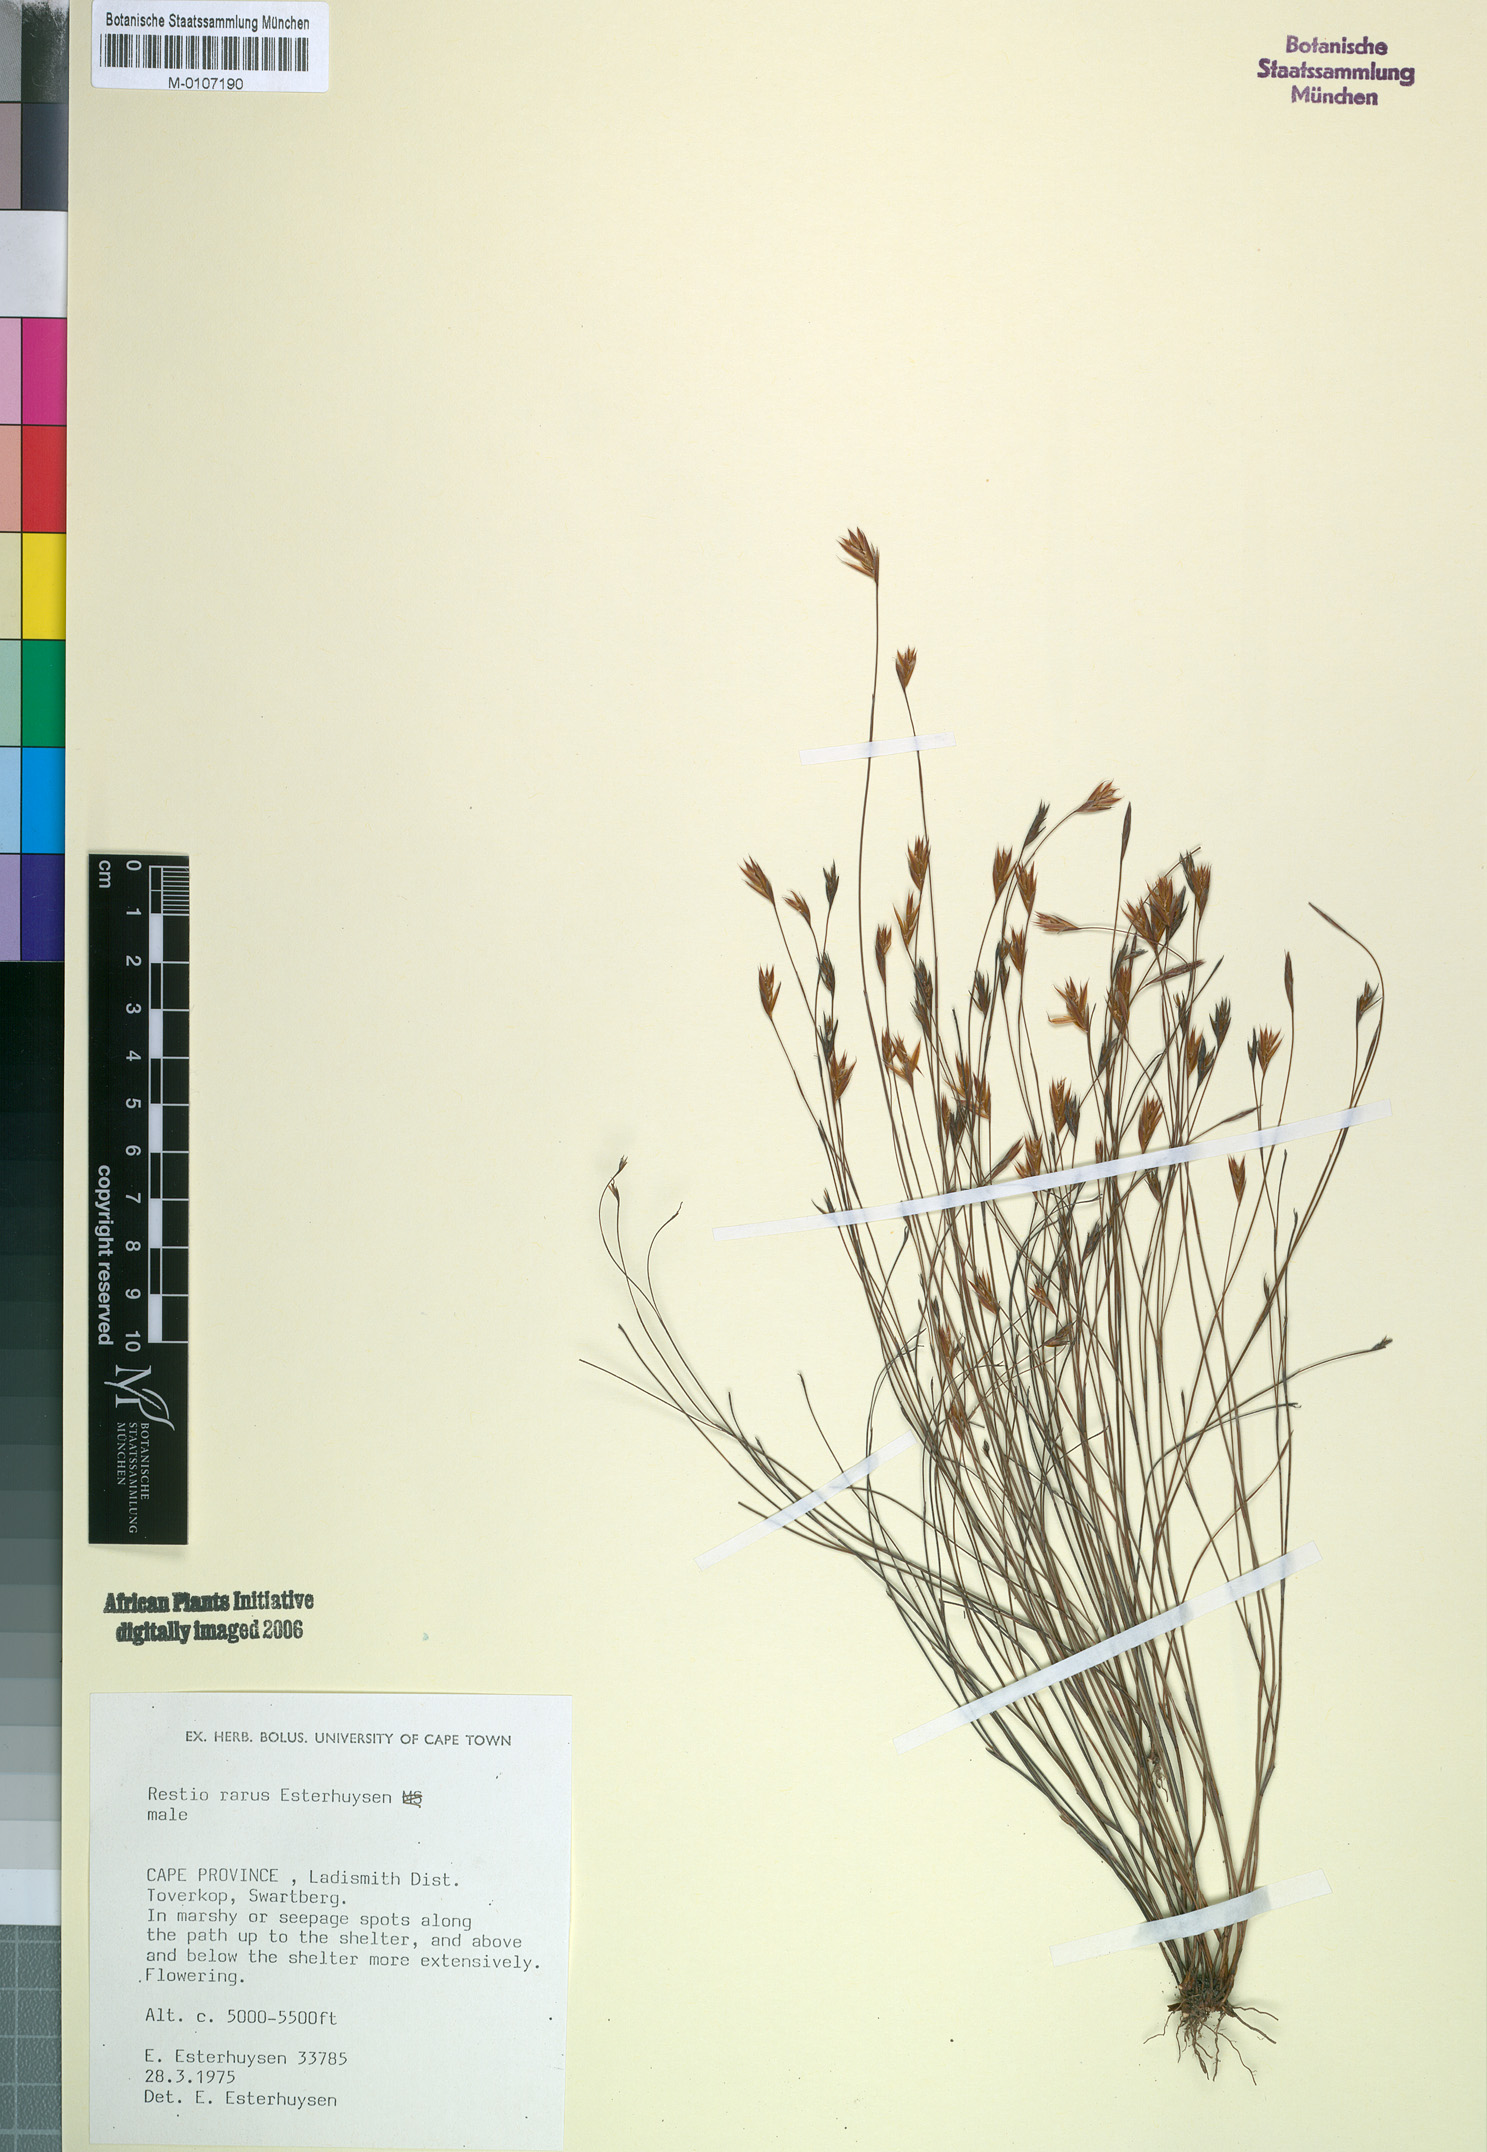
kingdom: Plantae
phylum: Tracheophyta
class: Liliopsida
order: Poales
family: Restionaceae
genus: Restio
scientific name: Restio rarus
